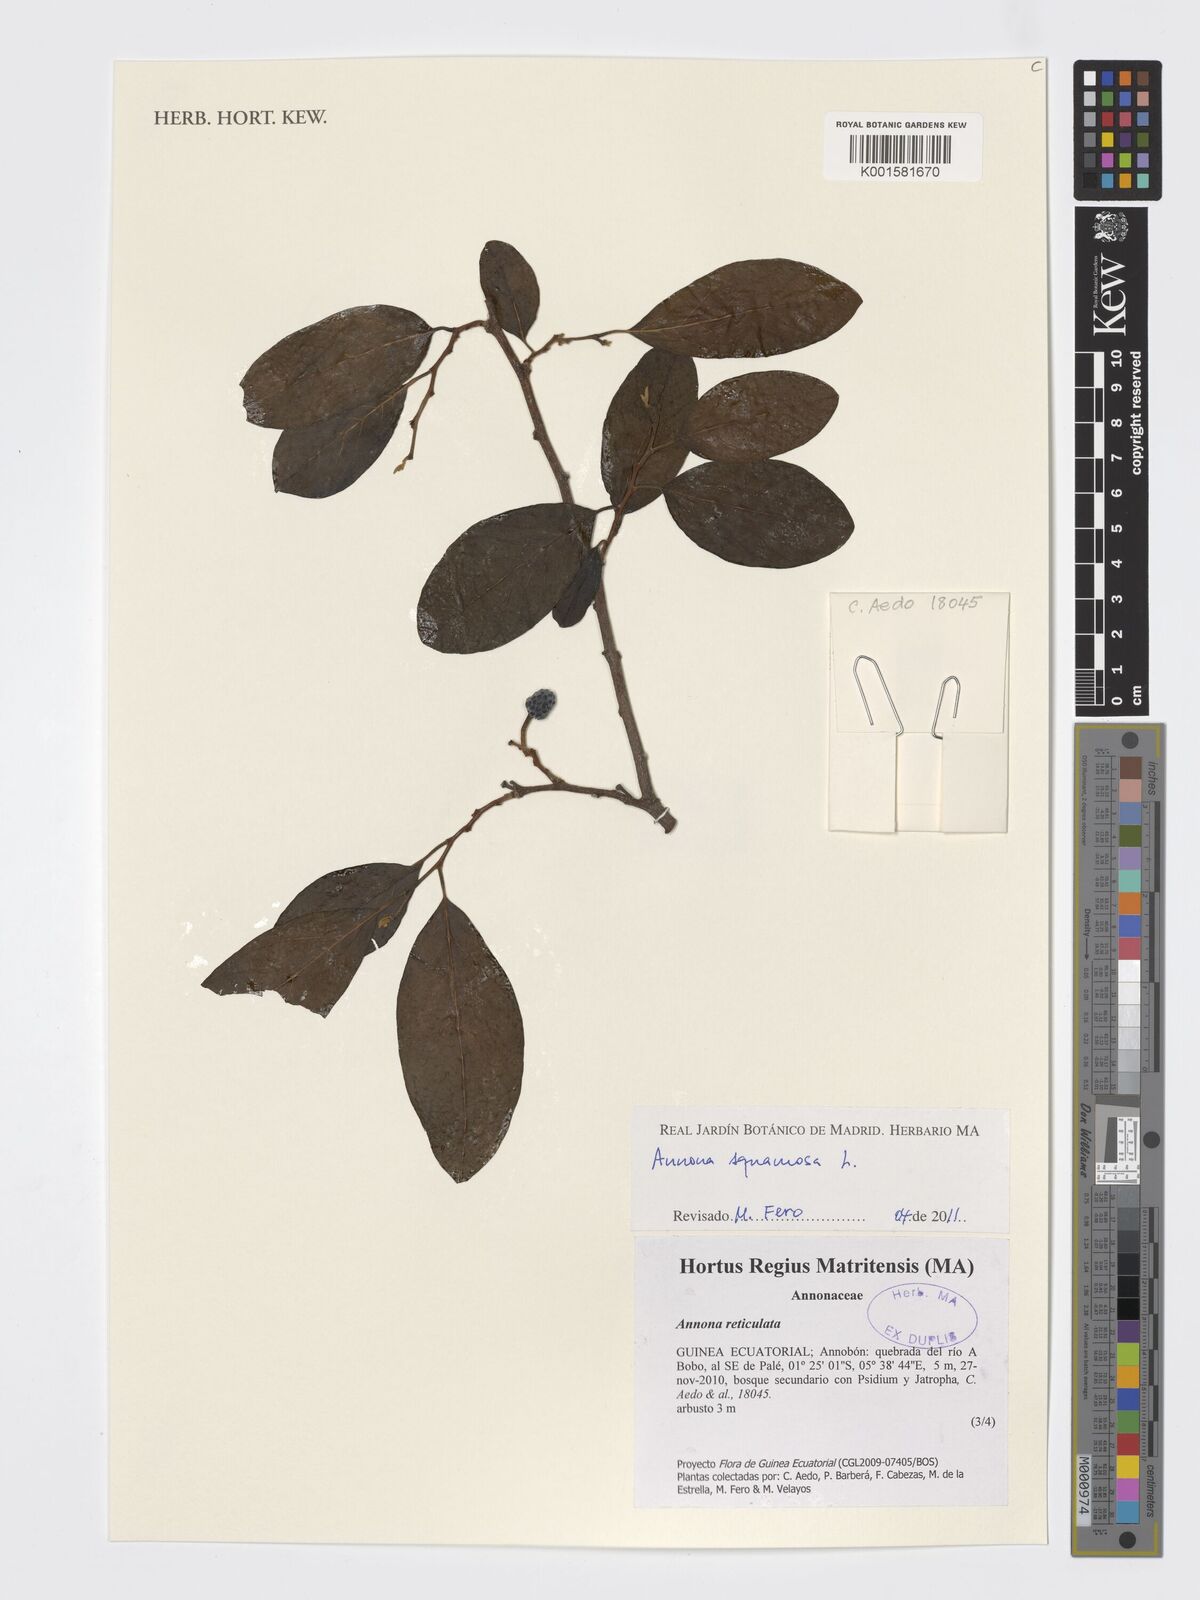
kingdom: Plantae
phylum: Tracheophyta
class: Magnoliopsida
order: Magnoliales
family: Annonaceae
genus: Annona
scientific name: Annona squamosa
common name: Custard-apple
